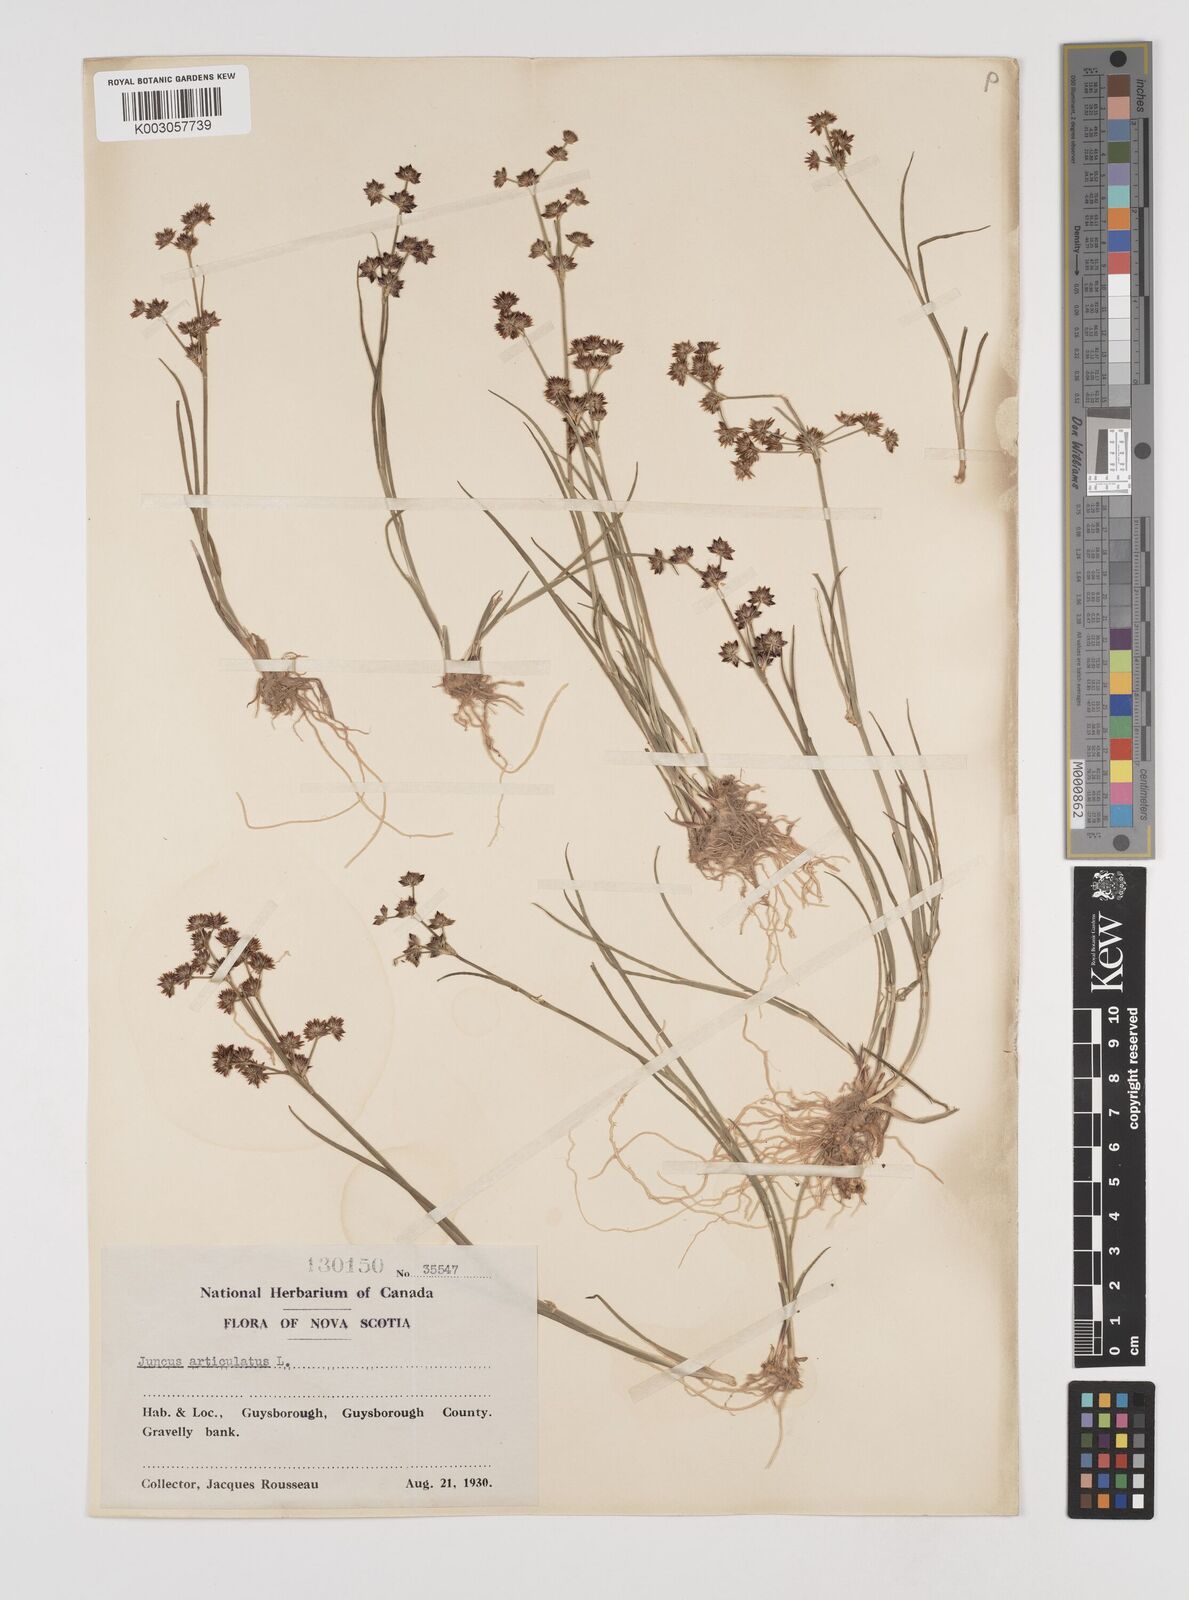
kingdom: Plantae
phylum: Tracheophyta
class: Liliopsida
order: Poales
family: Juncaceae
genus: Juncus
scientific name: Juncus articulatus
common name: Jointed rush
